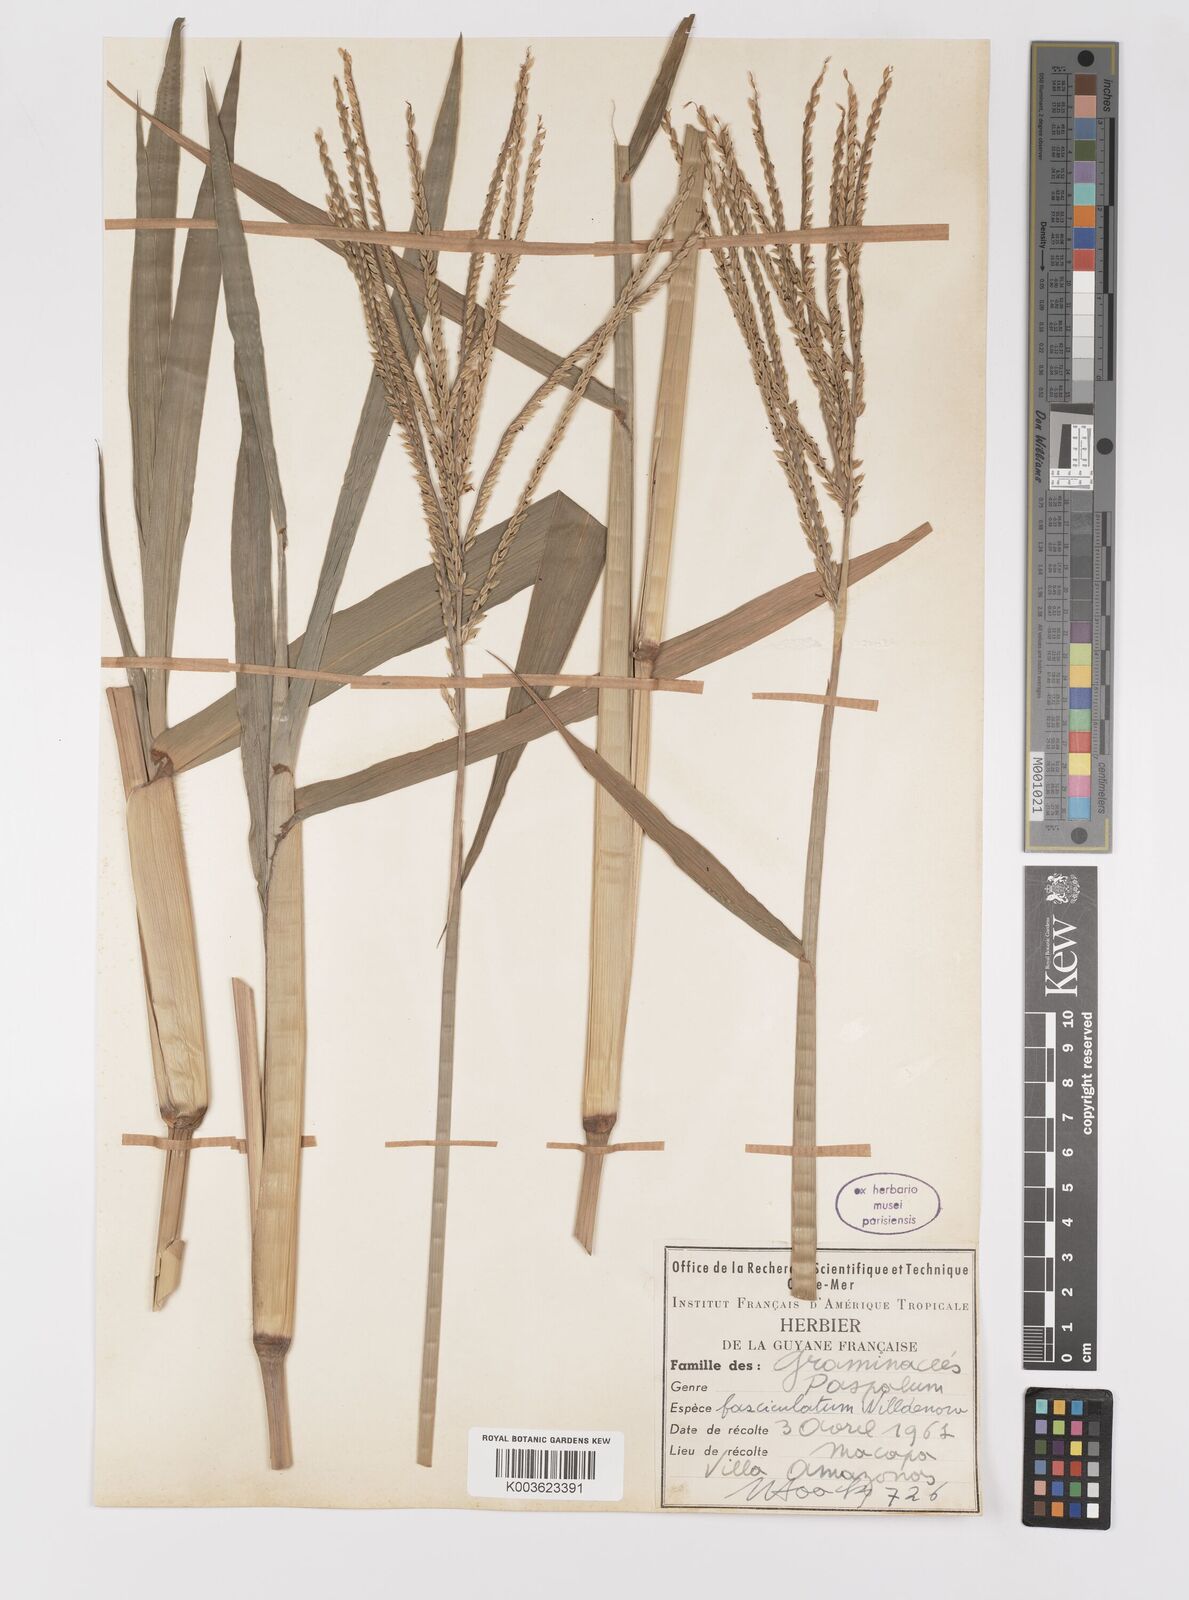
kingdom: Plantae
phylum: Tracheophyta
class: Liliopsida
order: Poales
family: Poaceae
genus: Paspalum
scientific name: Paspalum fasciculatum
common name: Bamboo grass
